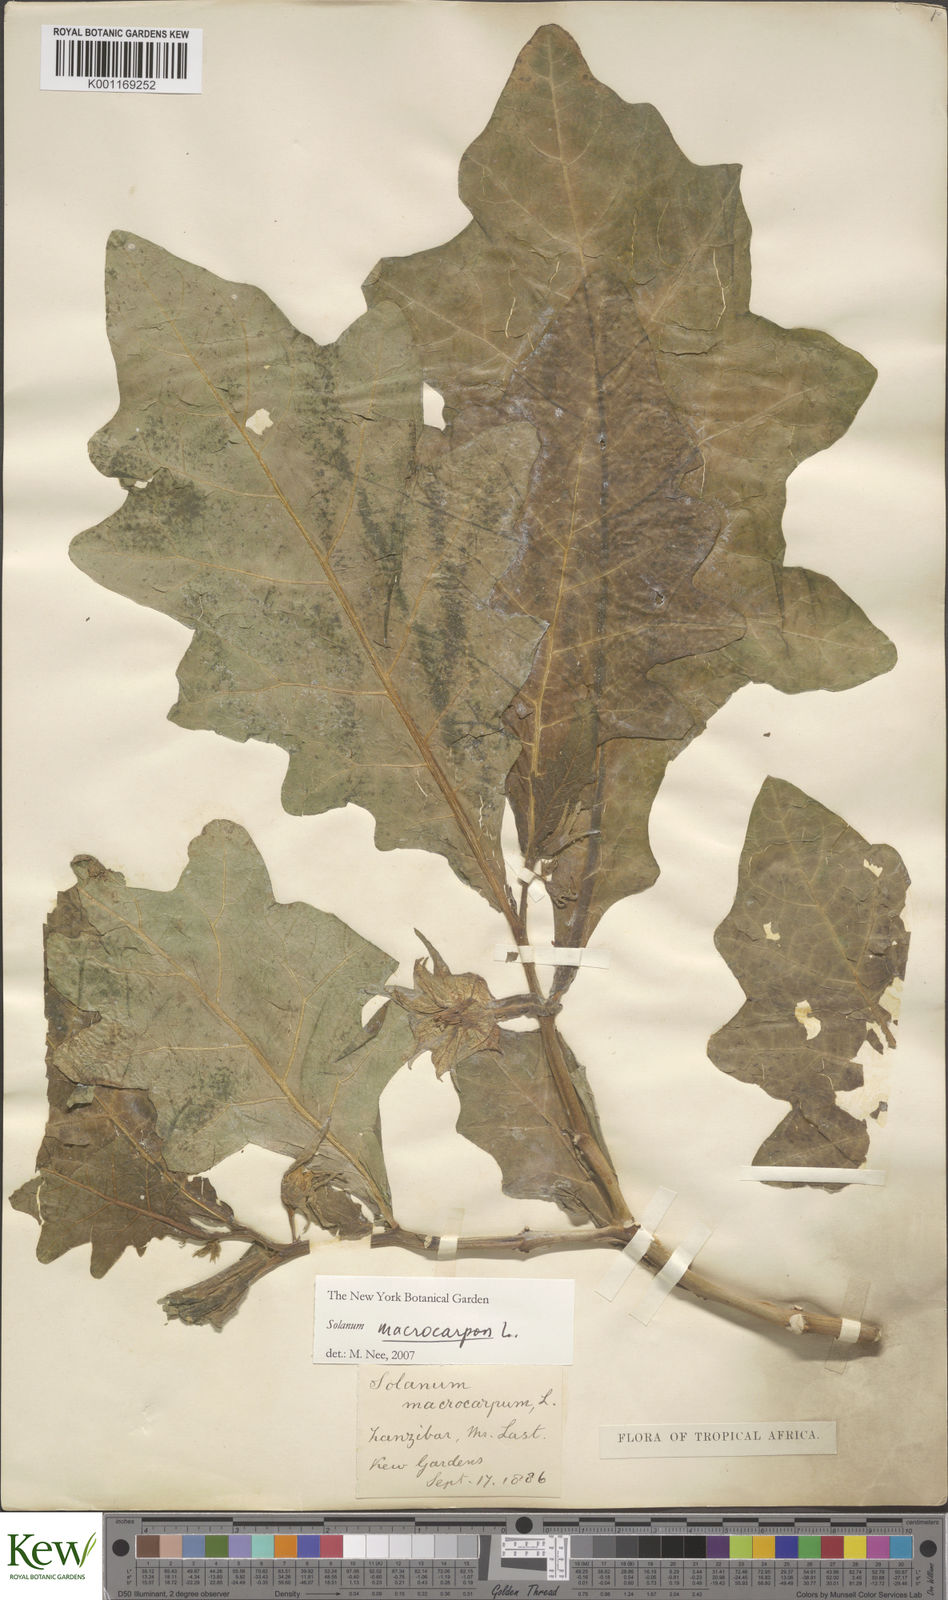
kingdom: Plantae
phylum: Tracheophyta
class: Magnoliopsida
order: Solanales
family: Solanaceae
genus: Solanum
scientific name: Solanum macrocarpon
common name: African eggplant
